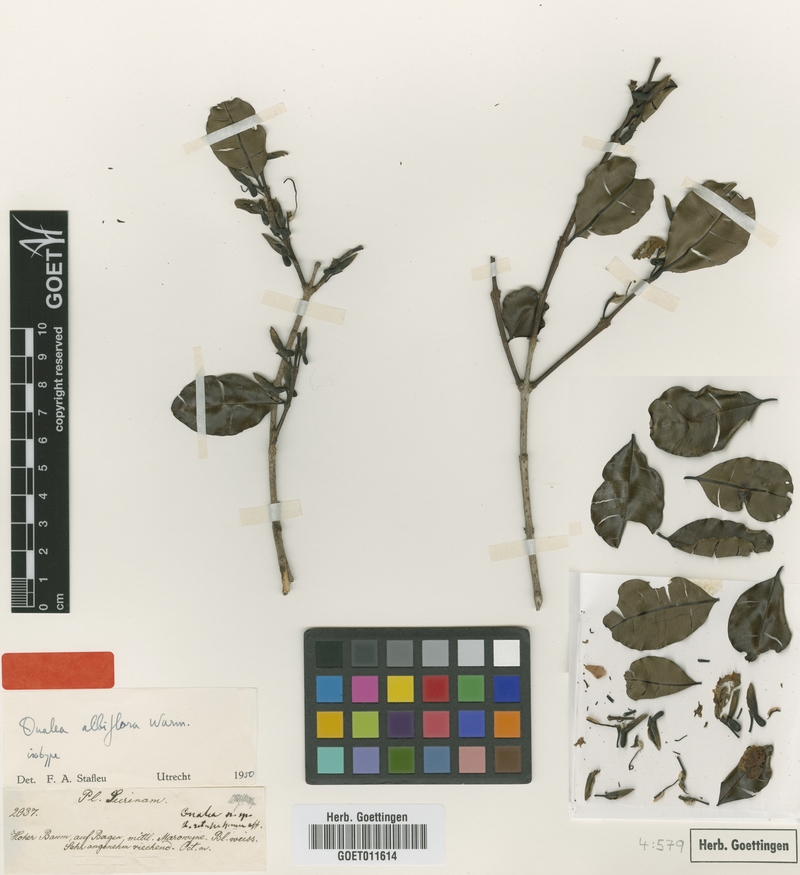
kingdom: Plantae
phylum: Tracheophyta
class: Magnoliopsida
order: Myrtales
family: Vochysiaceae
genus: Ruizterania
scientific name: Ruizterania albiflora
